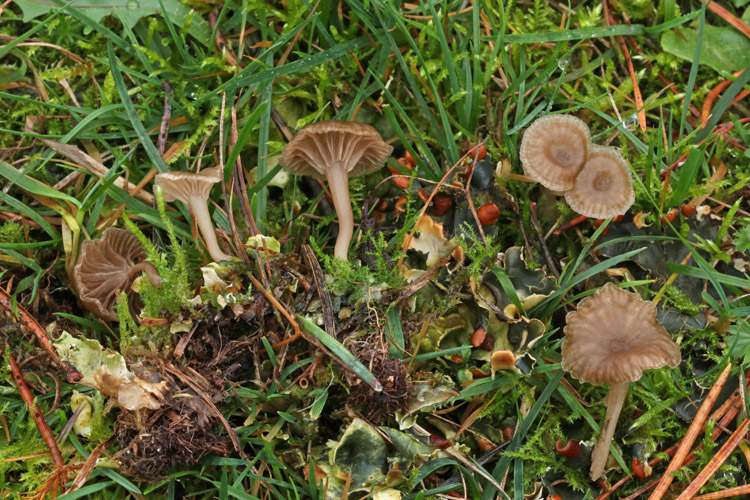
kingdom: Fungi
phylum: Basidiomycota
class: Agaricomycetes
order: Agaricales
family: Hygrophoraceae
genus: Arrhenia
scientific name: Arrhenia peltigerina
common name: skjoldlav-fontænehat
